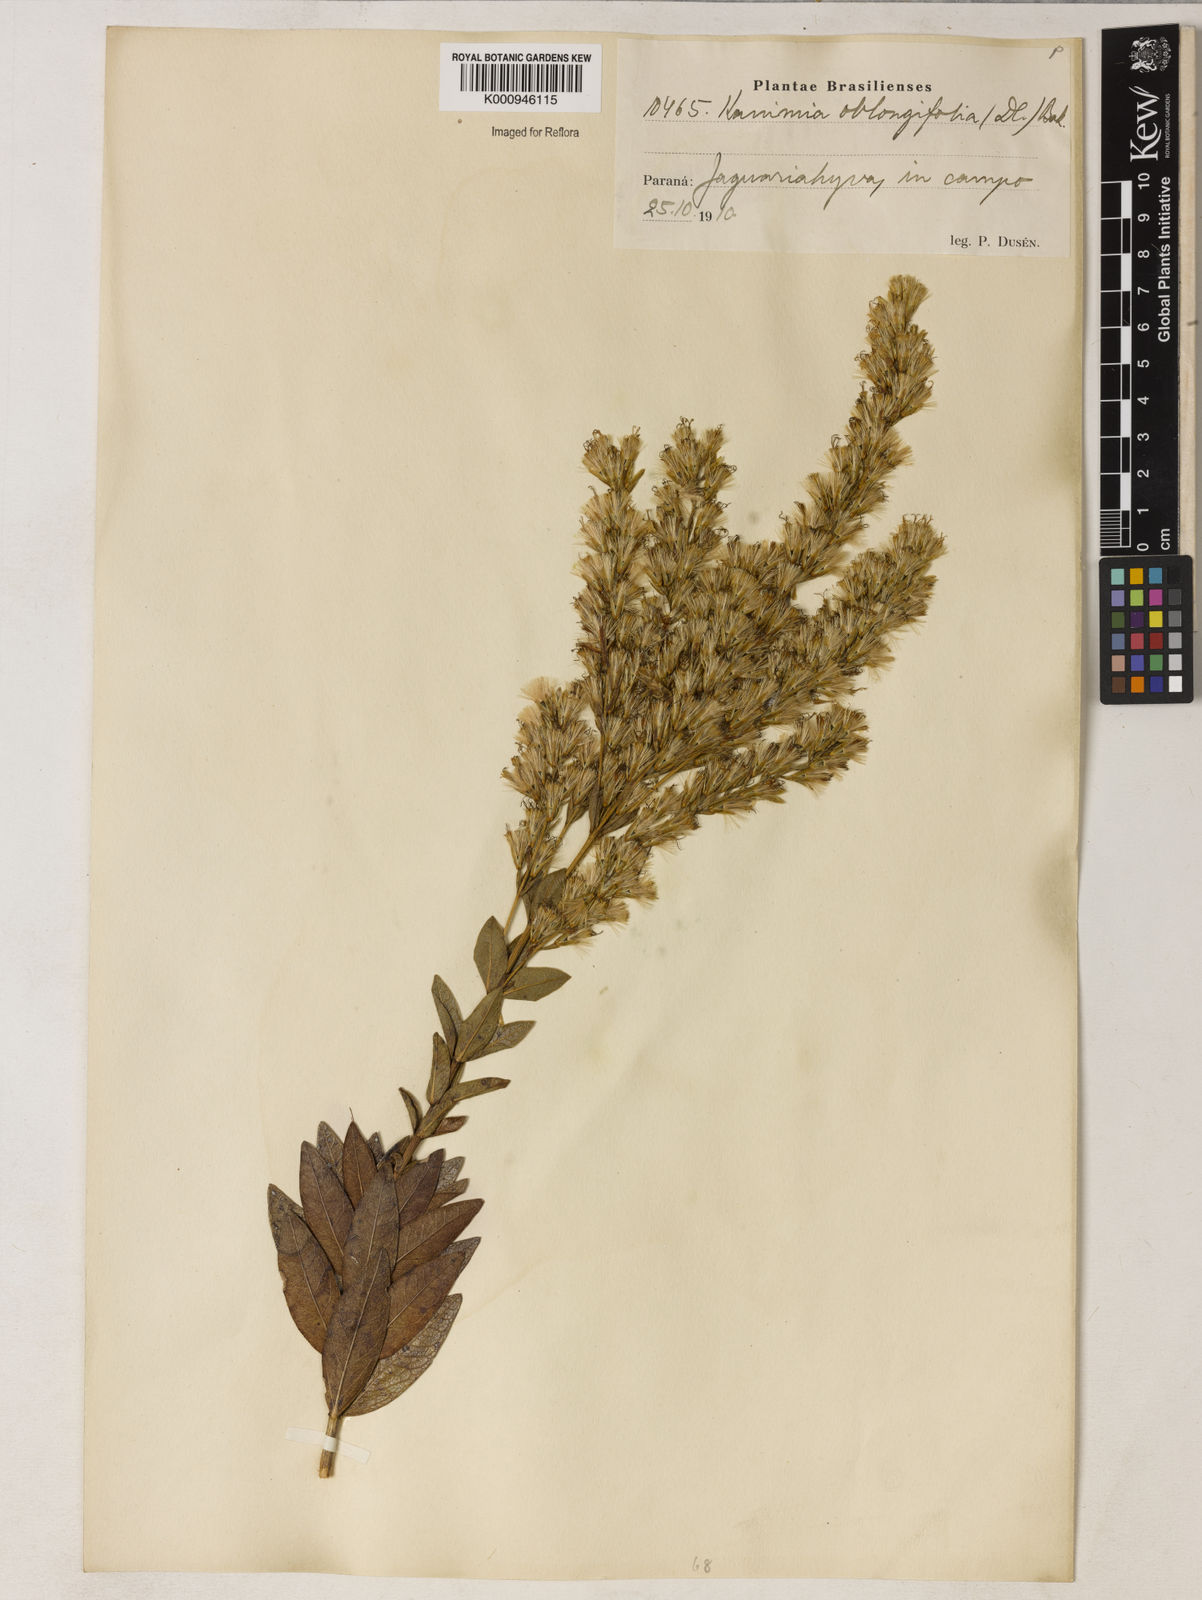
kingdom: Plantae
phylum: Tracheophyta
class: Magnoliopsida
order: Asterales
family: Asteraceae
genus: Mikania
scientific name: Mikania oblongifolia
